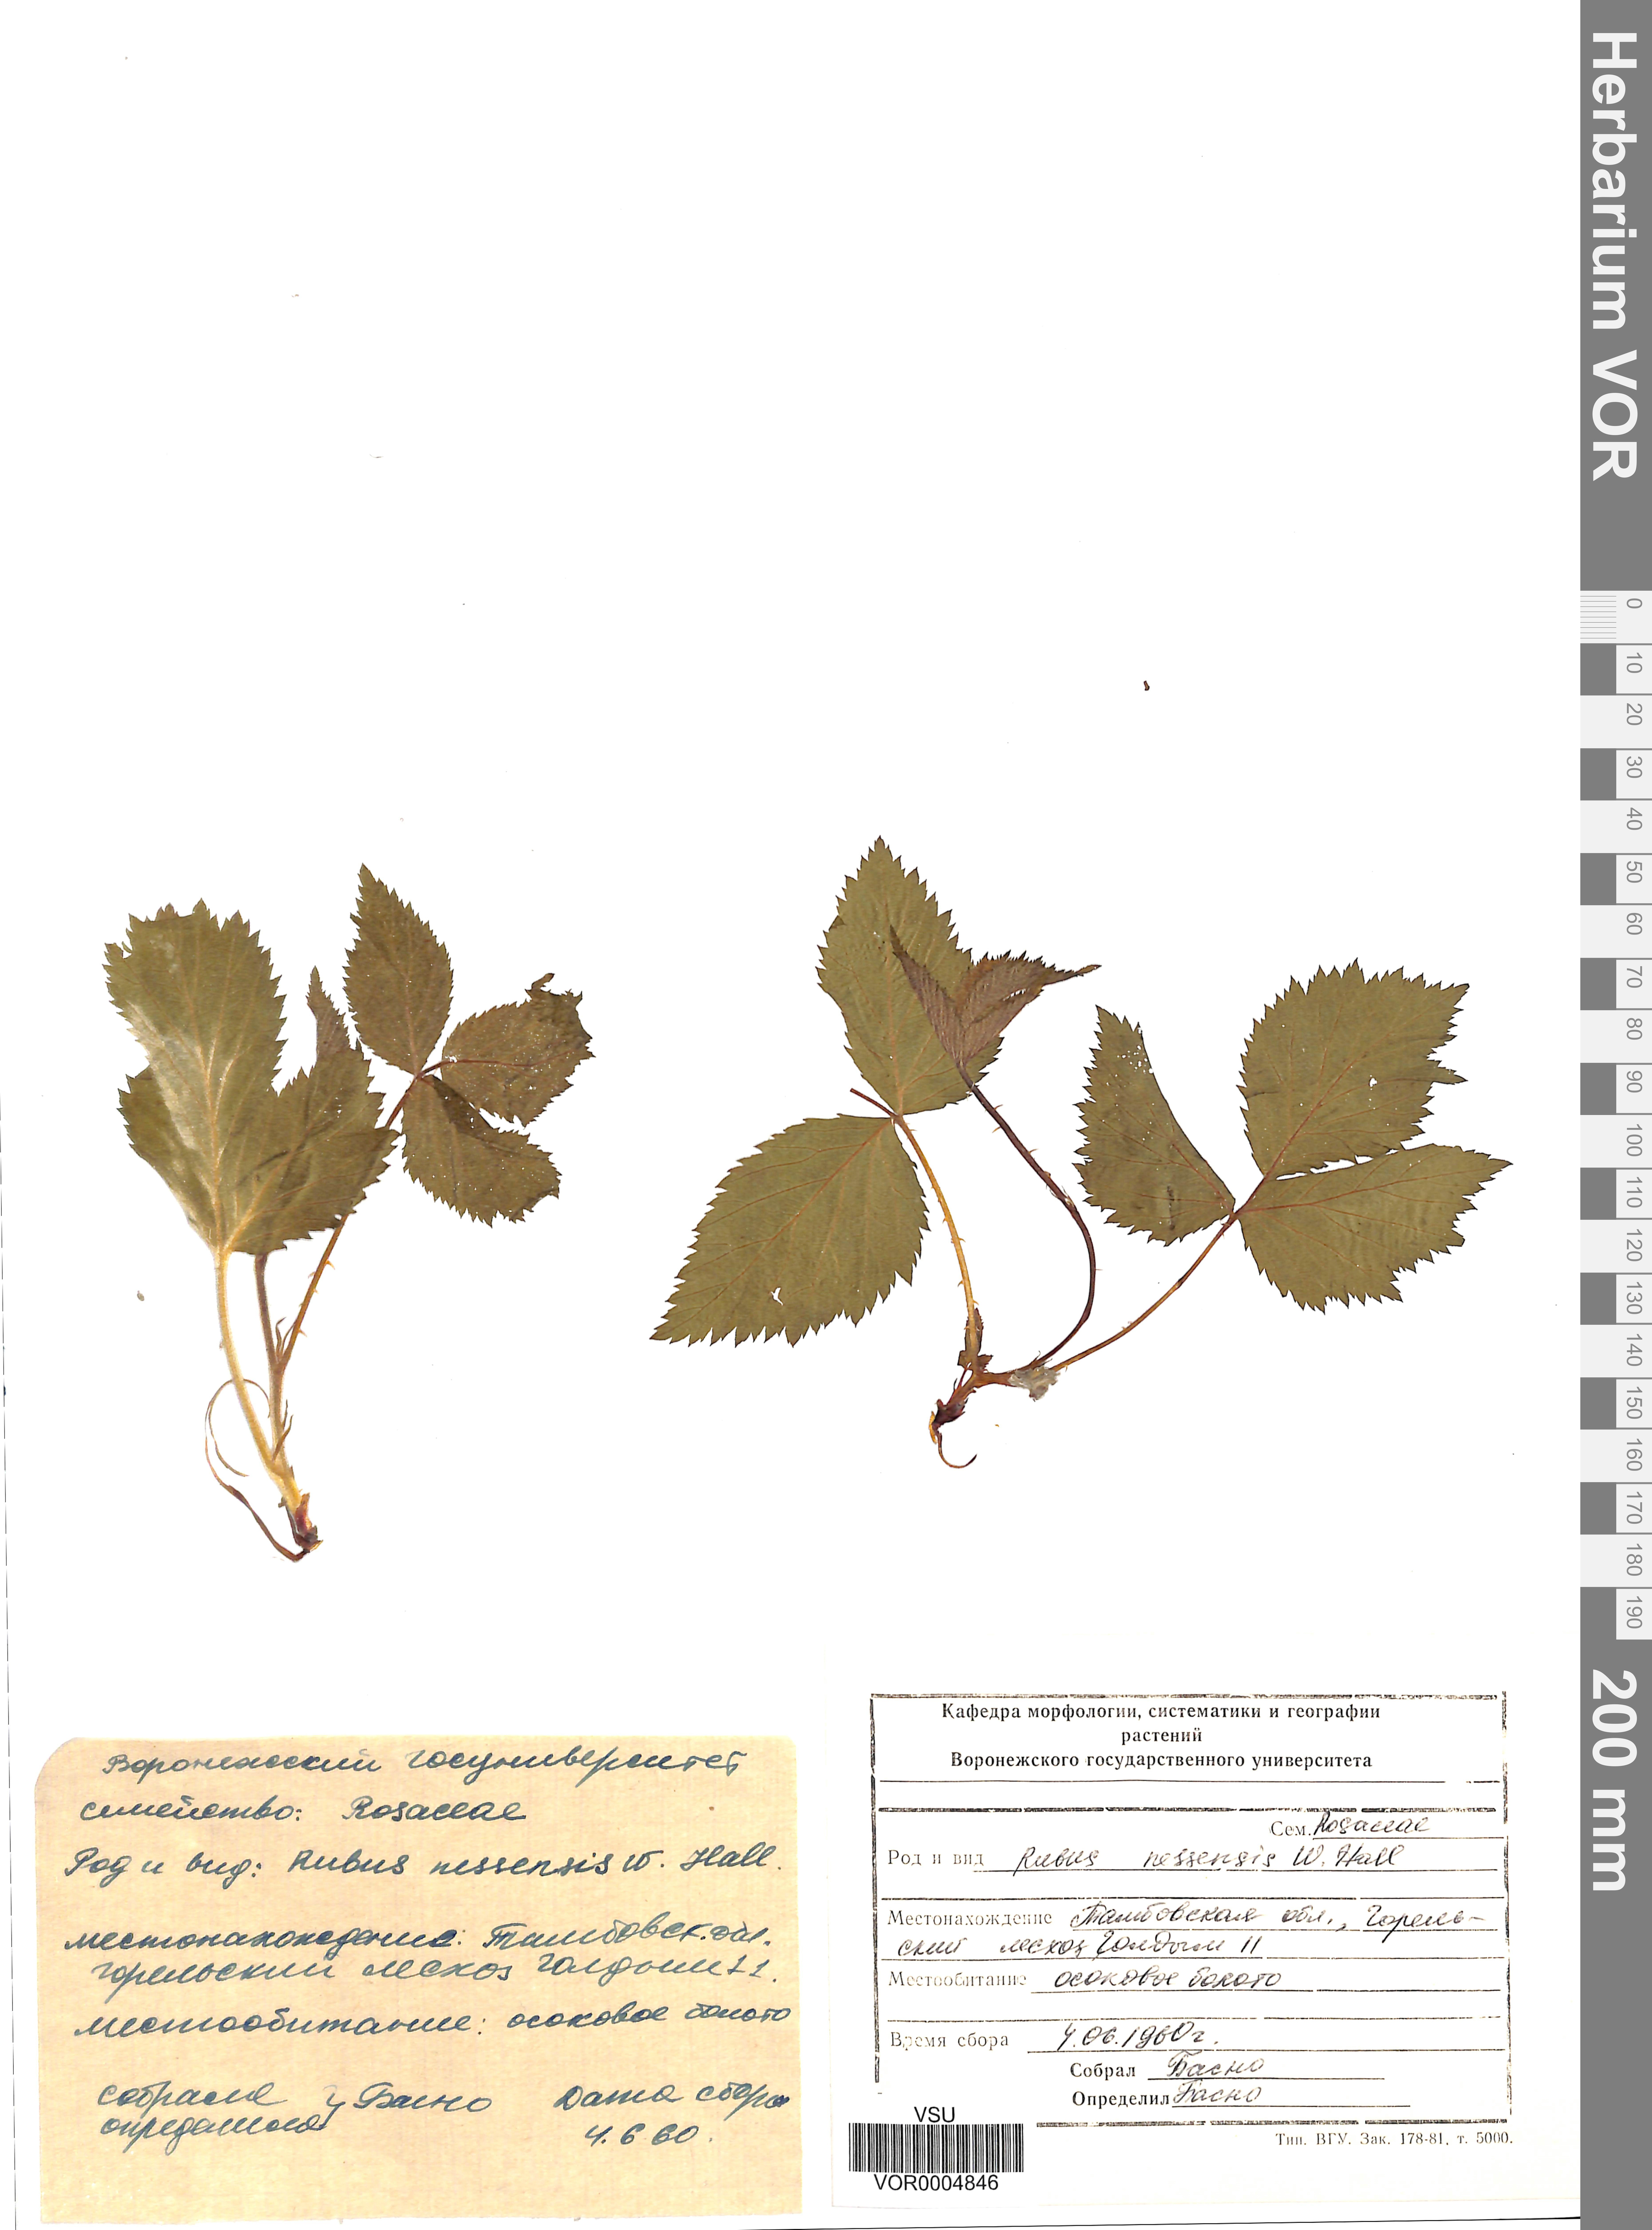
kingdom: Plantae
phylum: Tracheophyta
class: Magnoliopsida
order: Rosales
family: Rosaceae
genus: Rubus
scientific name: Rubus polonicus
